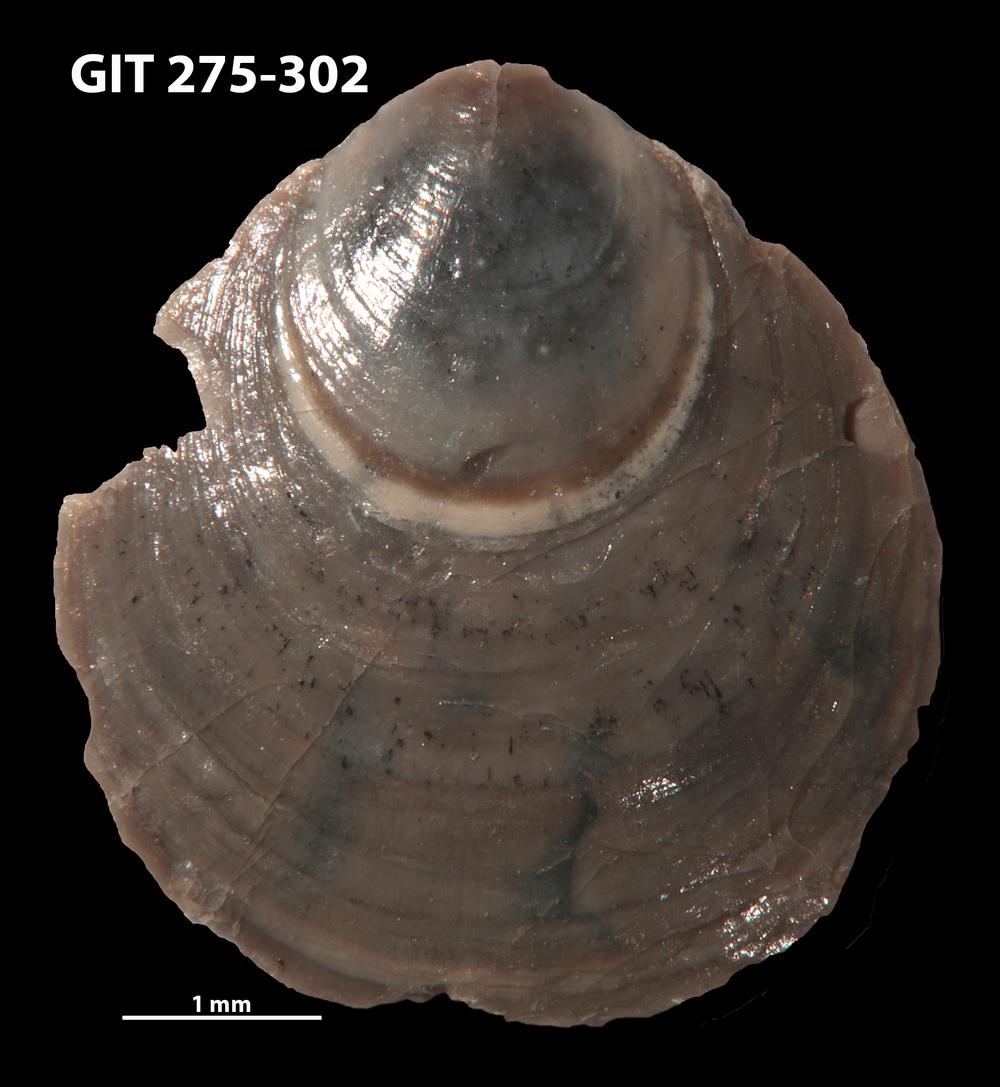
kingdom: Animalia
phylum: Brachiopoda
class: Lingulata
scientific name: Lingulata
